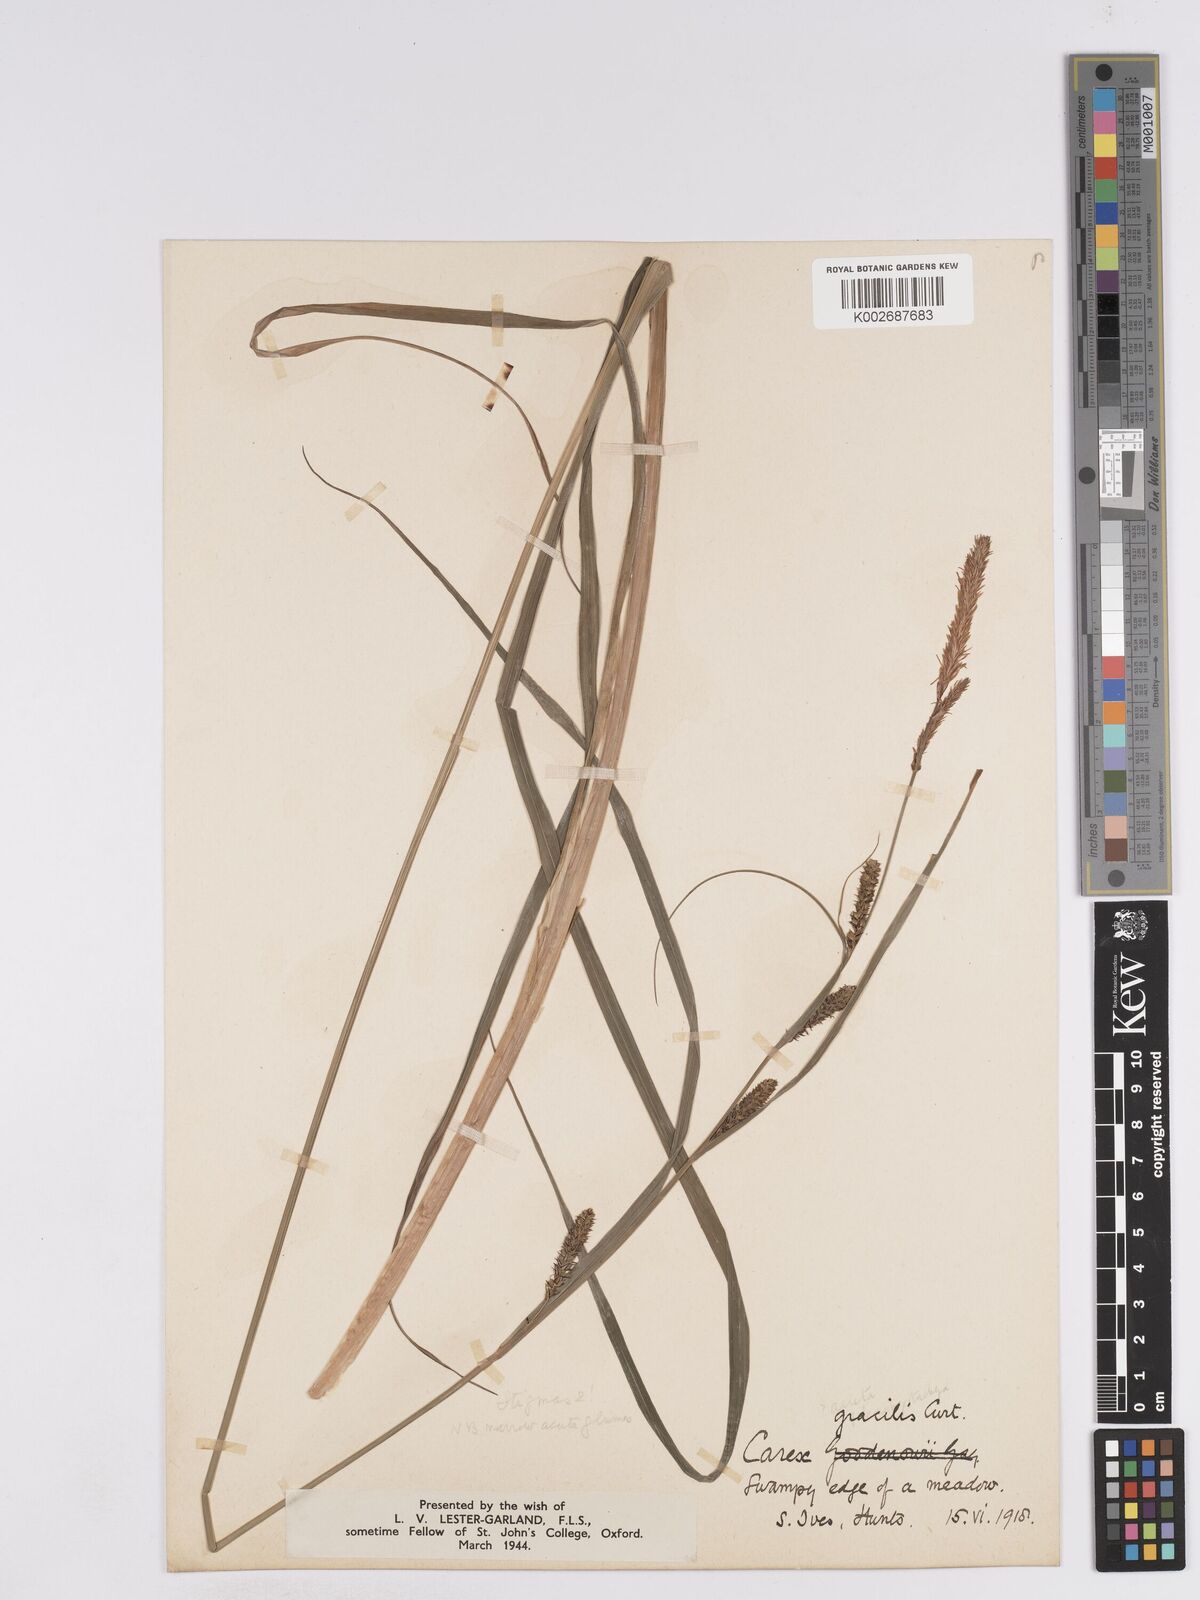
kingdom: Plantae
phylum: Tracheophyta
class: Liliopsida
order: Poales
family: Cyperaceae
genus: Carex
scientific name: Carex acuta
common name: Slender tufted-sedge
